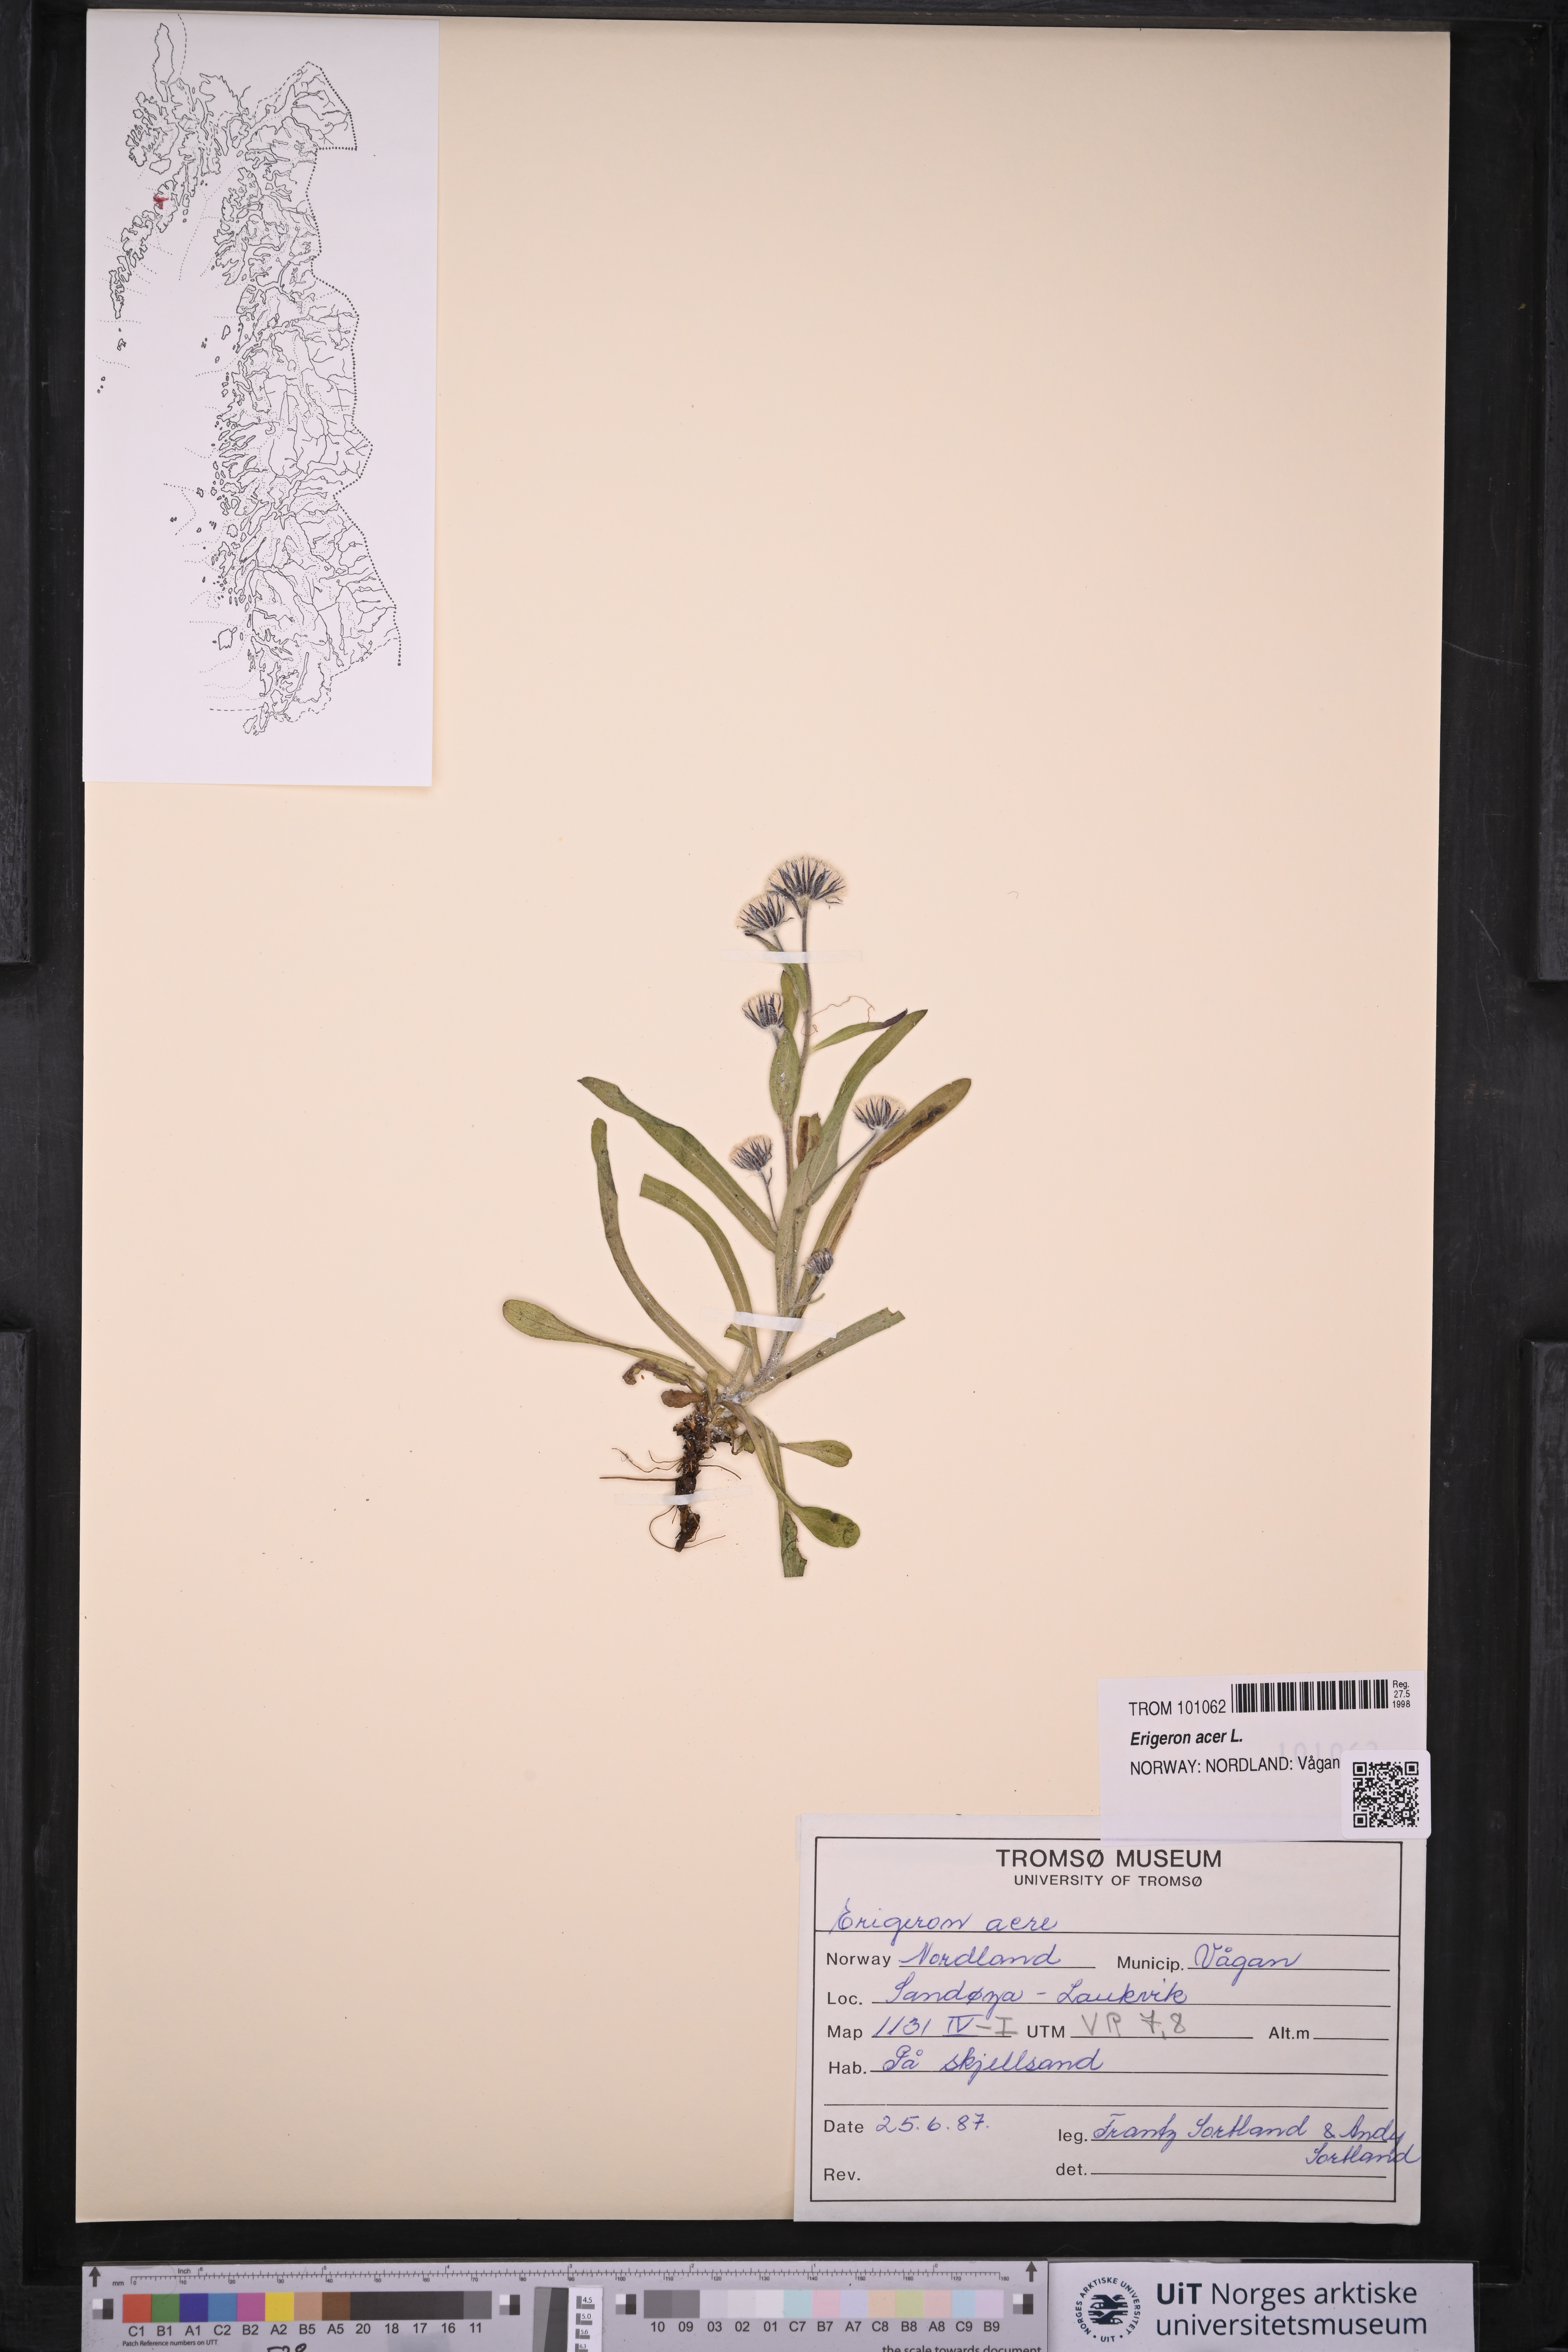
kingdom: Plantae
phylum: Tracheophyta
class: Magnoliopsida
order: Asterales
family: Asteraceae
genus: Erigeron
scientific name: Erigeron acris
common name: Blue fleabane
